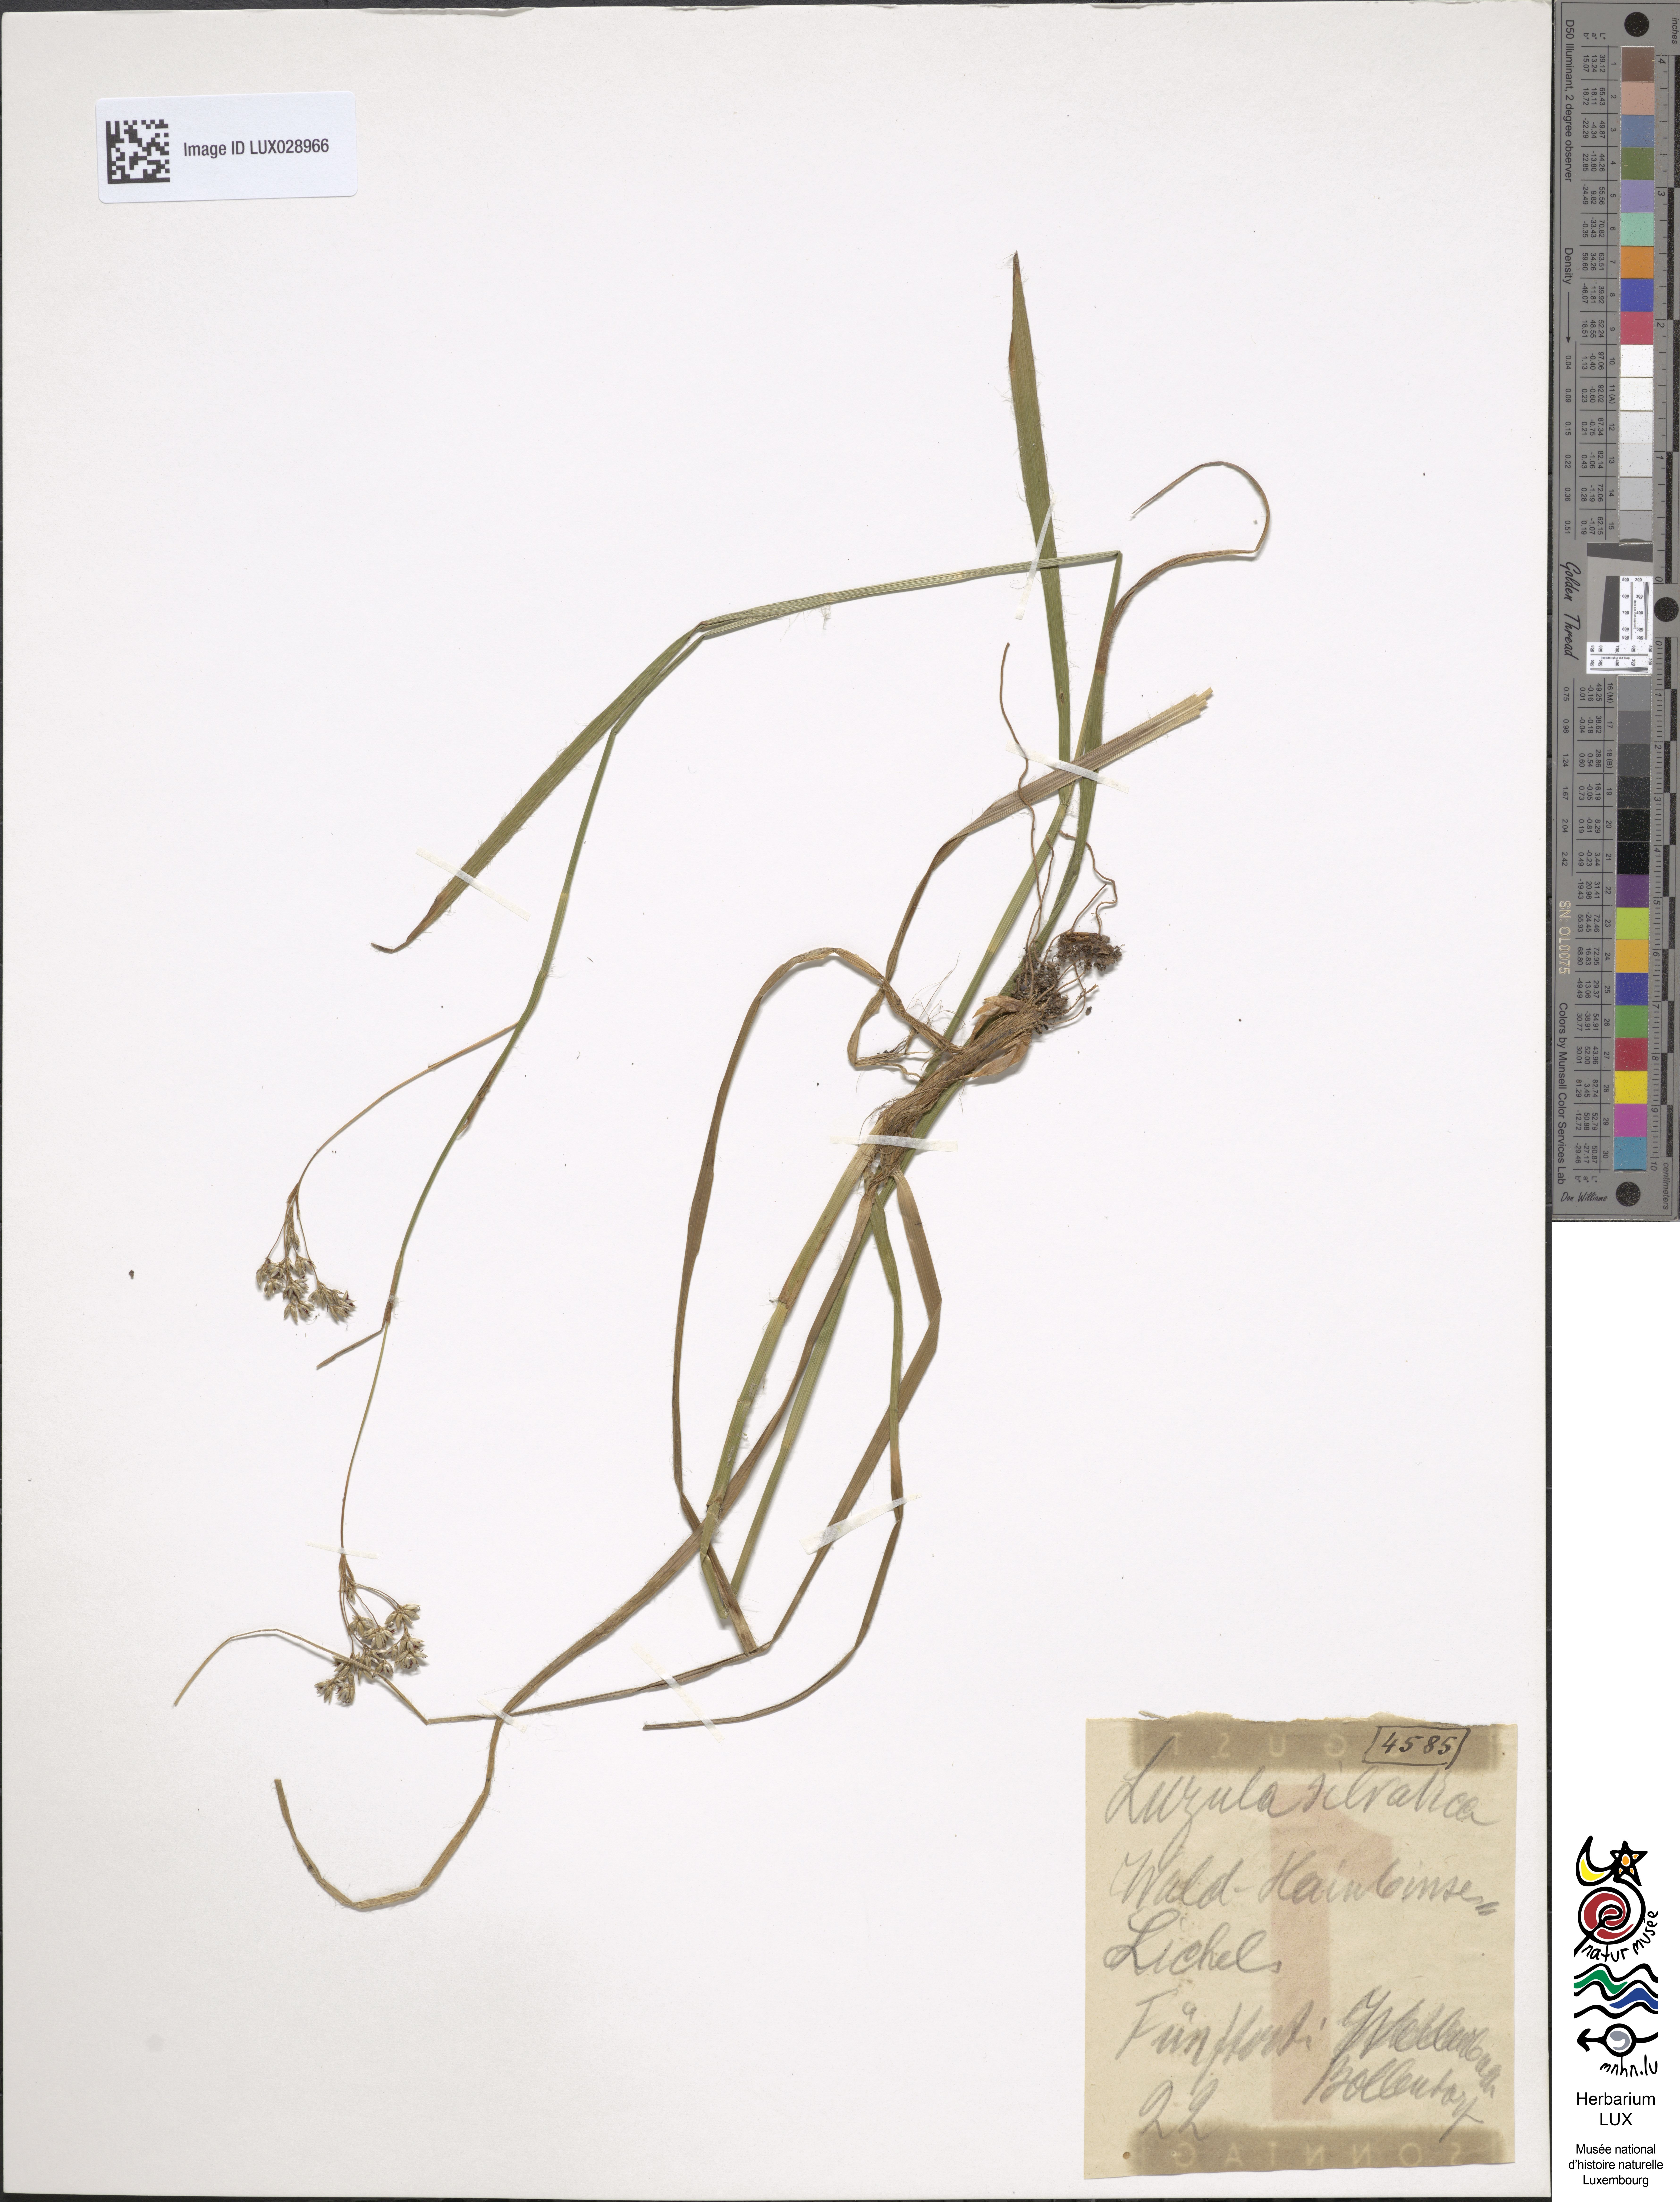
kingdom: Plantae
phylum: Tracheophyta
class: Liliopsida
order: Poales
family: Juncaceae
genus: Luzula
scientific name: Luzula sylvatica
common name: Great wood-rush
